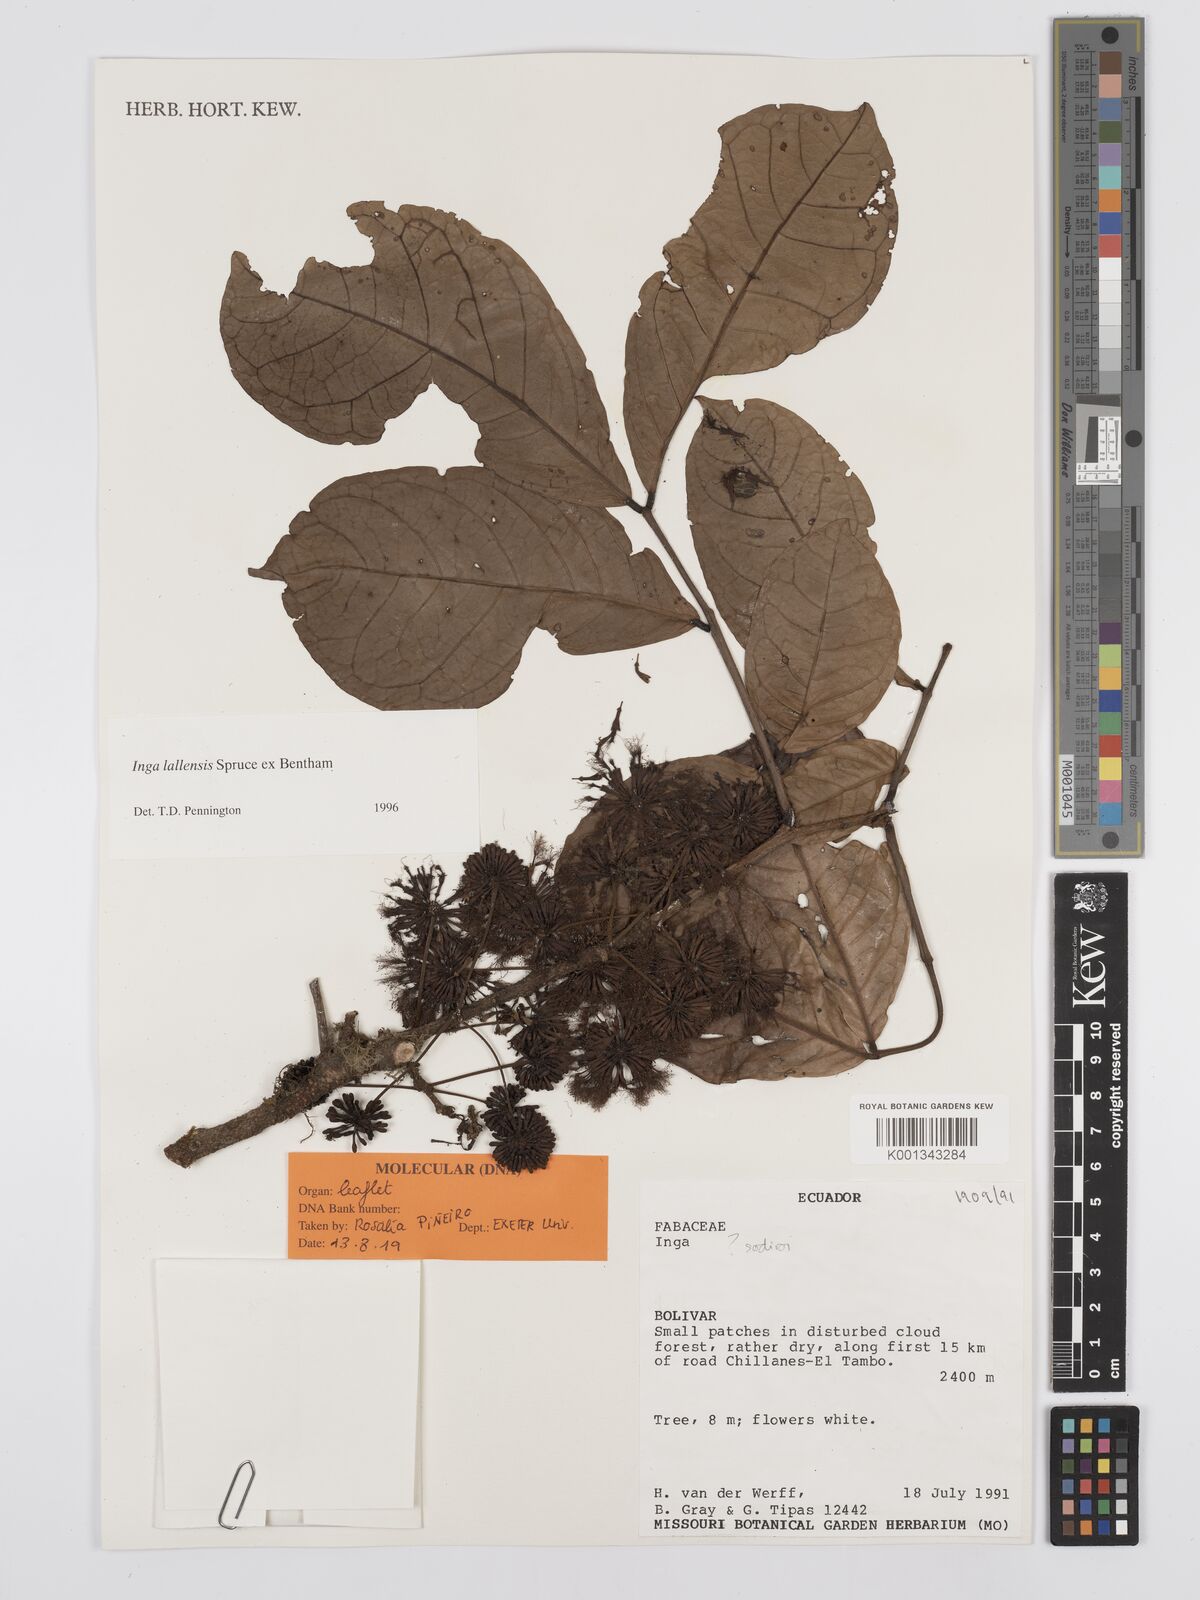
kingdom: Plantae
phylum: Tracheophyta
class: Magnoliopsida
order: Fabales
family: Fabaceae
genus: Inga
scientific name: Inga lallensis
